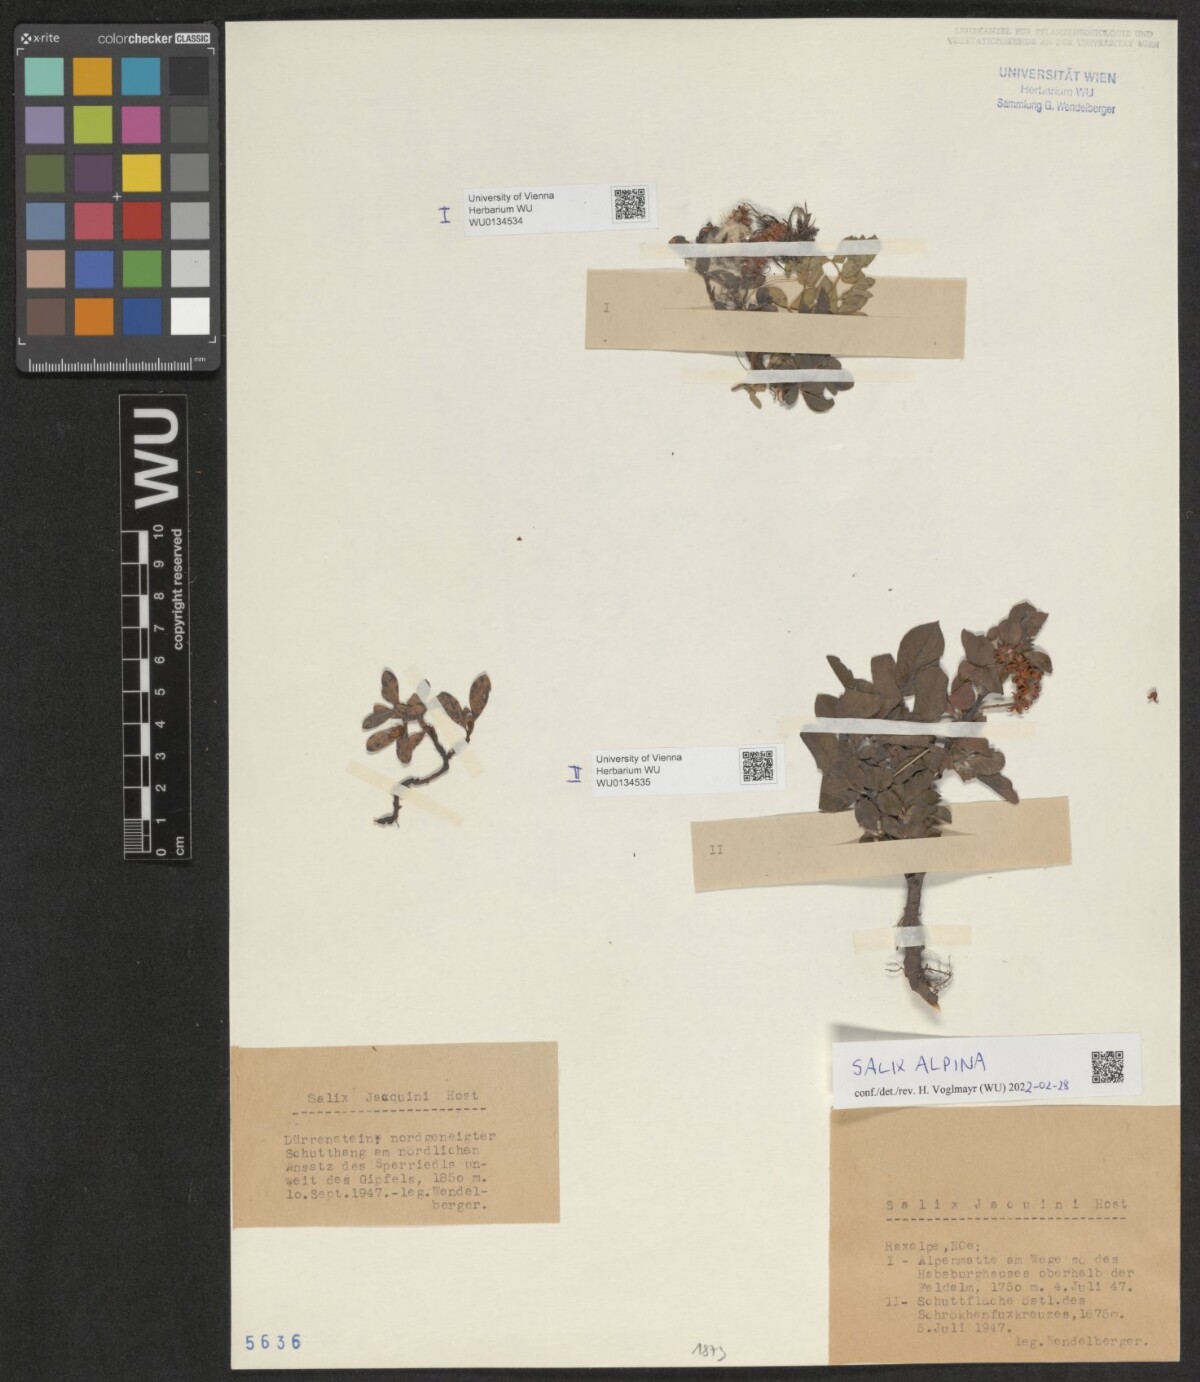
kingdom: Plantae
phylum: Tracheophyta
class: Magnoliopsida
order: Malpighiales
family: Salicaceae
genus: Salix
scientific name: Salix alpina
